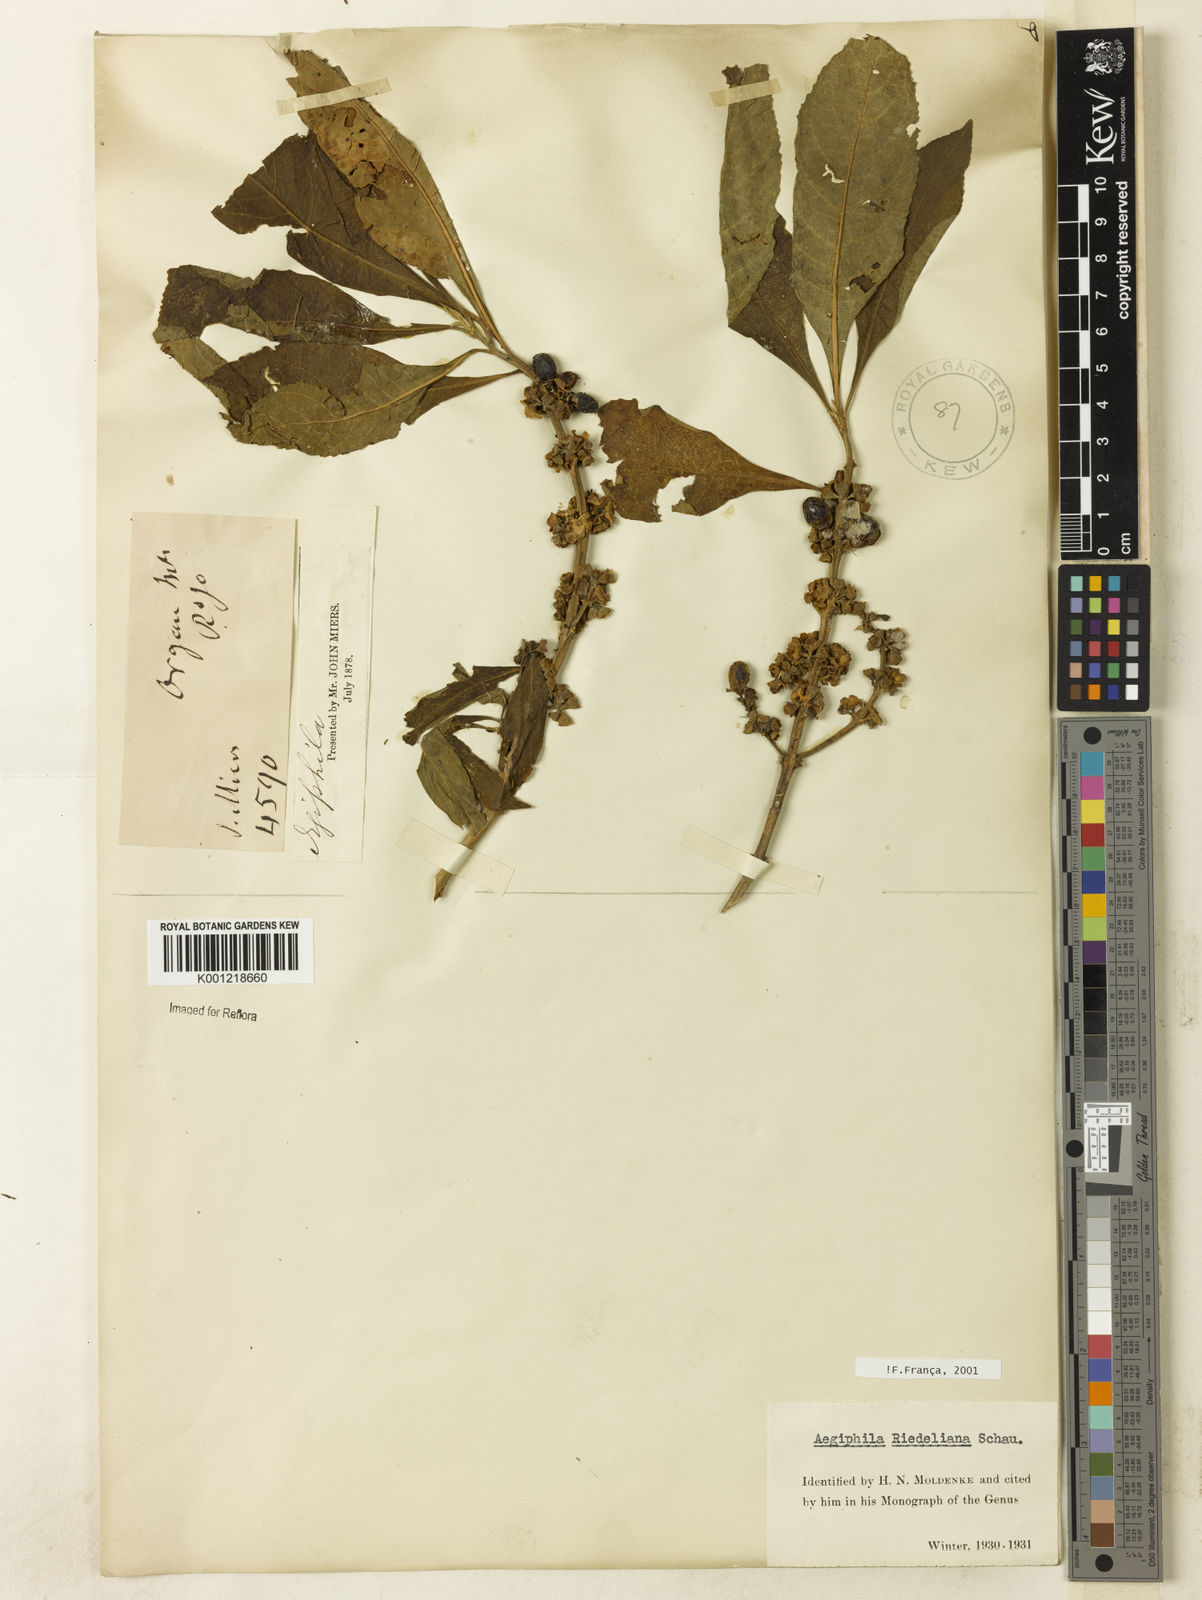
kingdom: Plantae
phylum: Tracheophyta
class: Magnoliopsida
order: Lamiales
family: Lamiaceae
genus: Aegiphila
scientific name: Aegiphila riedeliana
